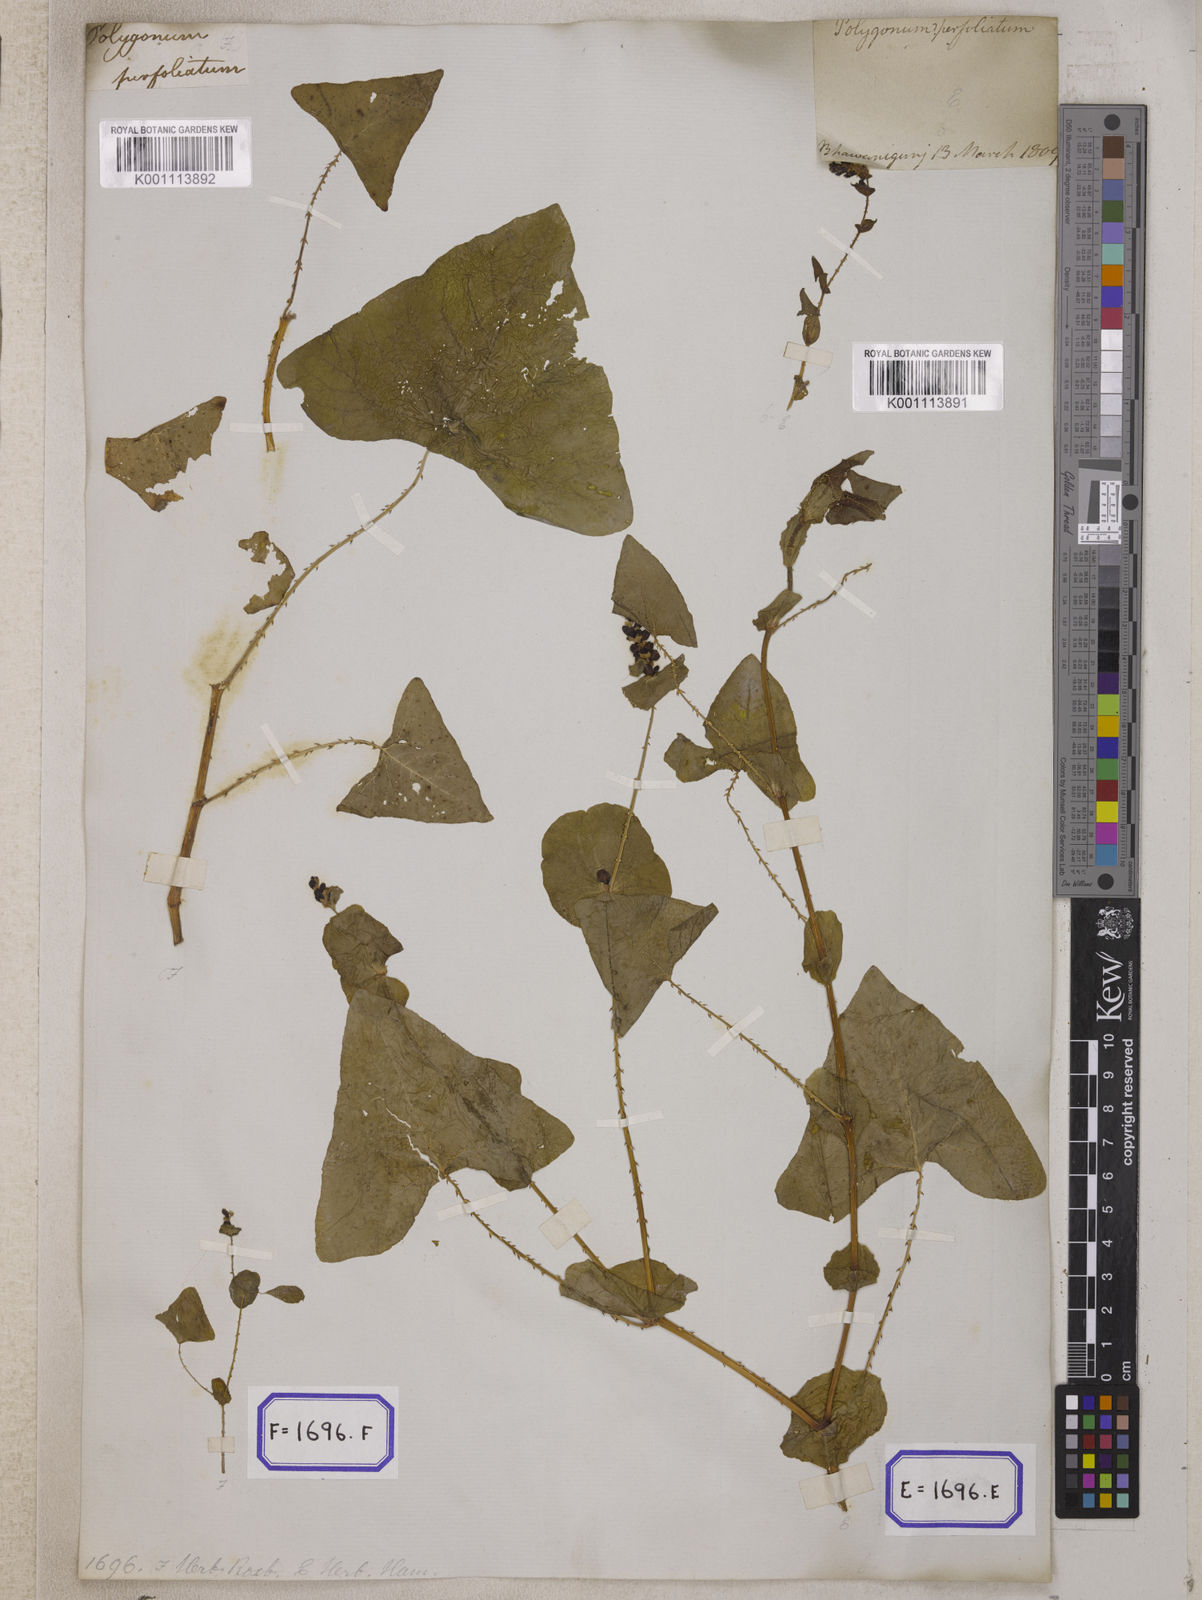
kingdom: Plantae
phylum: Tracheophyta
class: Magnoliopsida
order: Caryophyllales
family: Polygonaceae
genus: Persicaria
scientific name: Persicaria perfoliata
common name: Asiatic tearthumb
